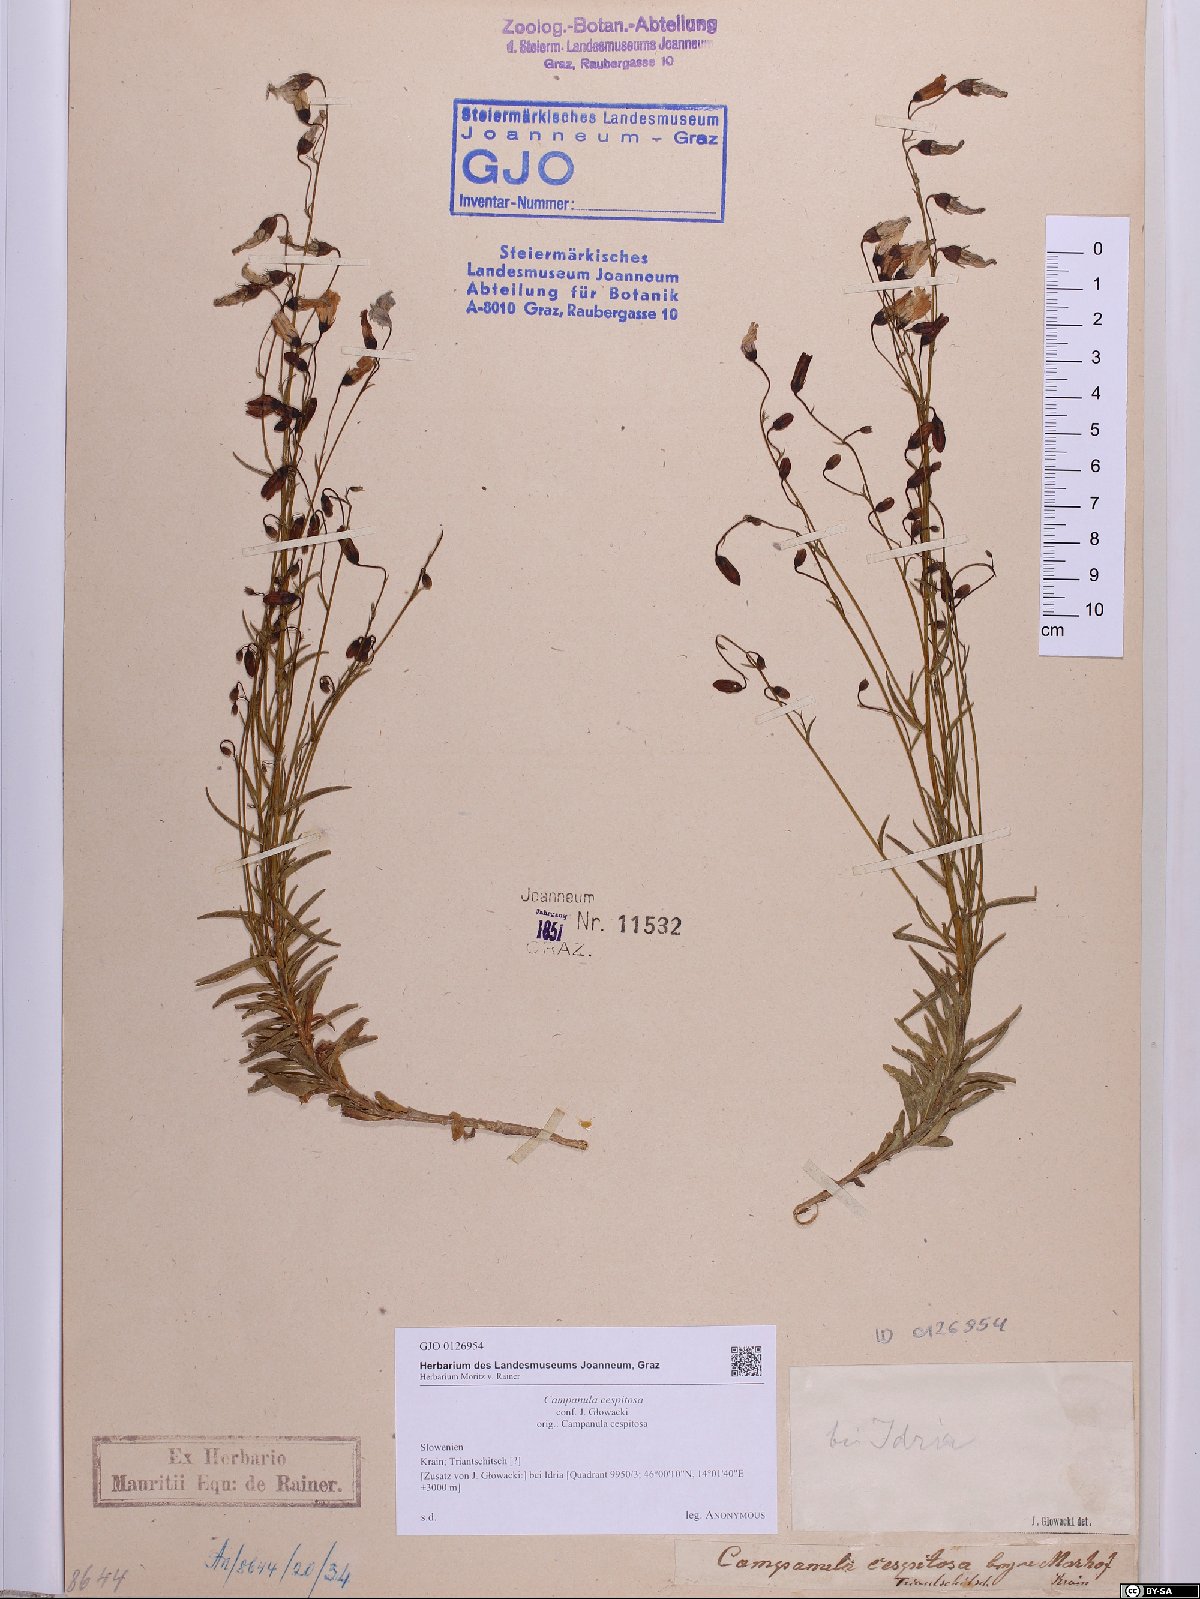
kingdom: Plantae
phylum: Tracheophyta
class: Magnoliopsida
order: Asterales
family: Campanulaceae
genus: Campanula
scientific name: Campanula cespitosa
